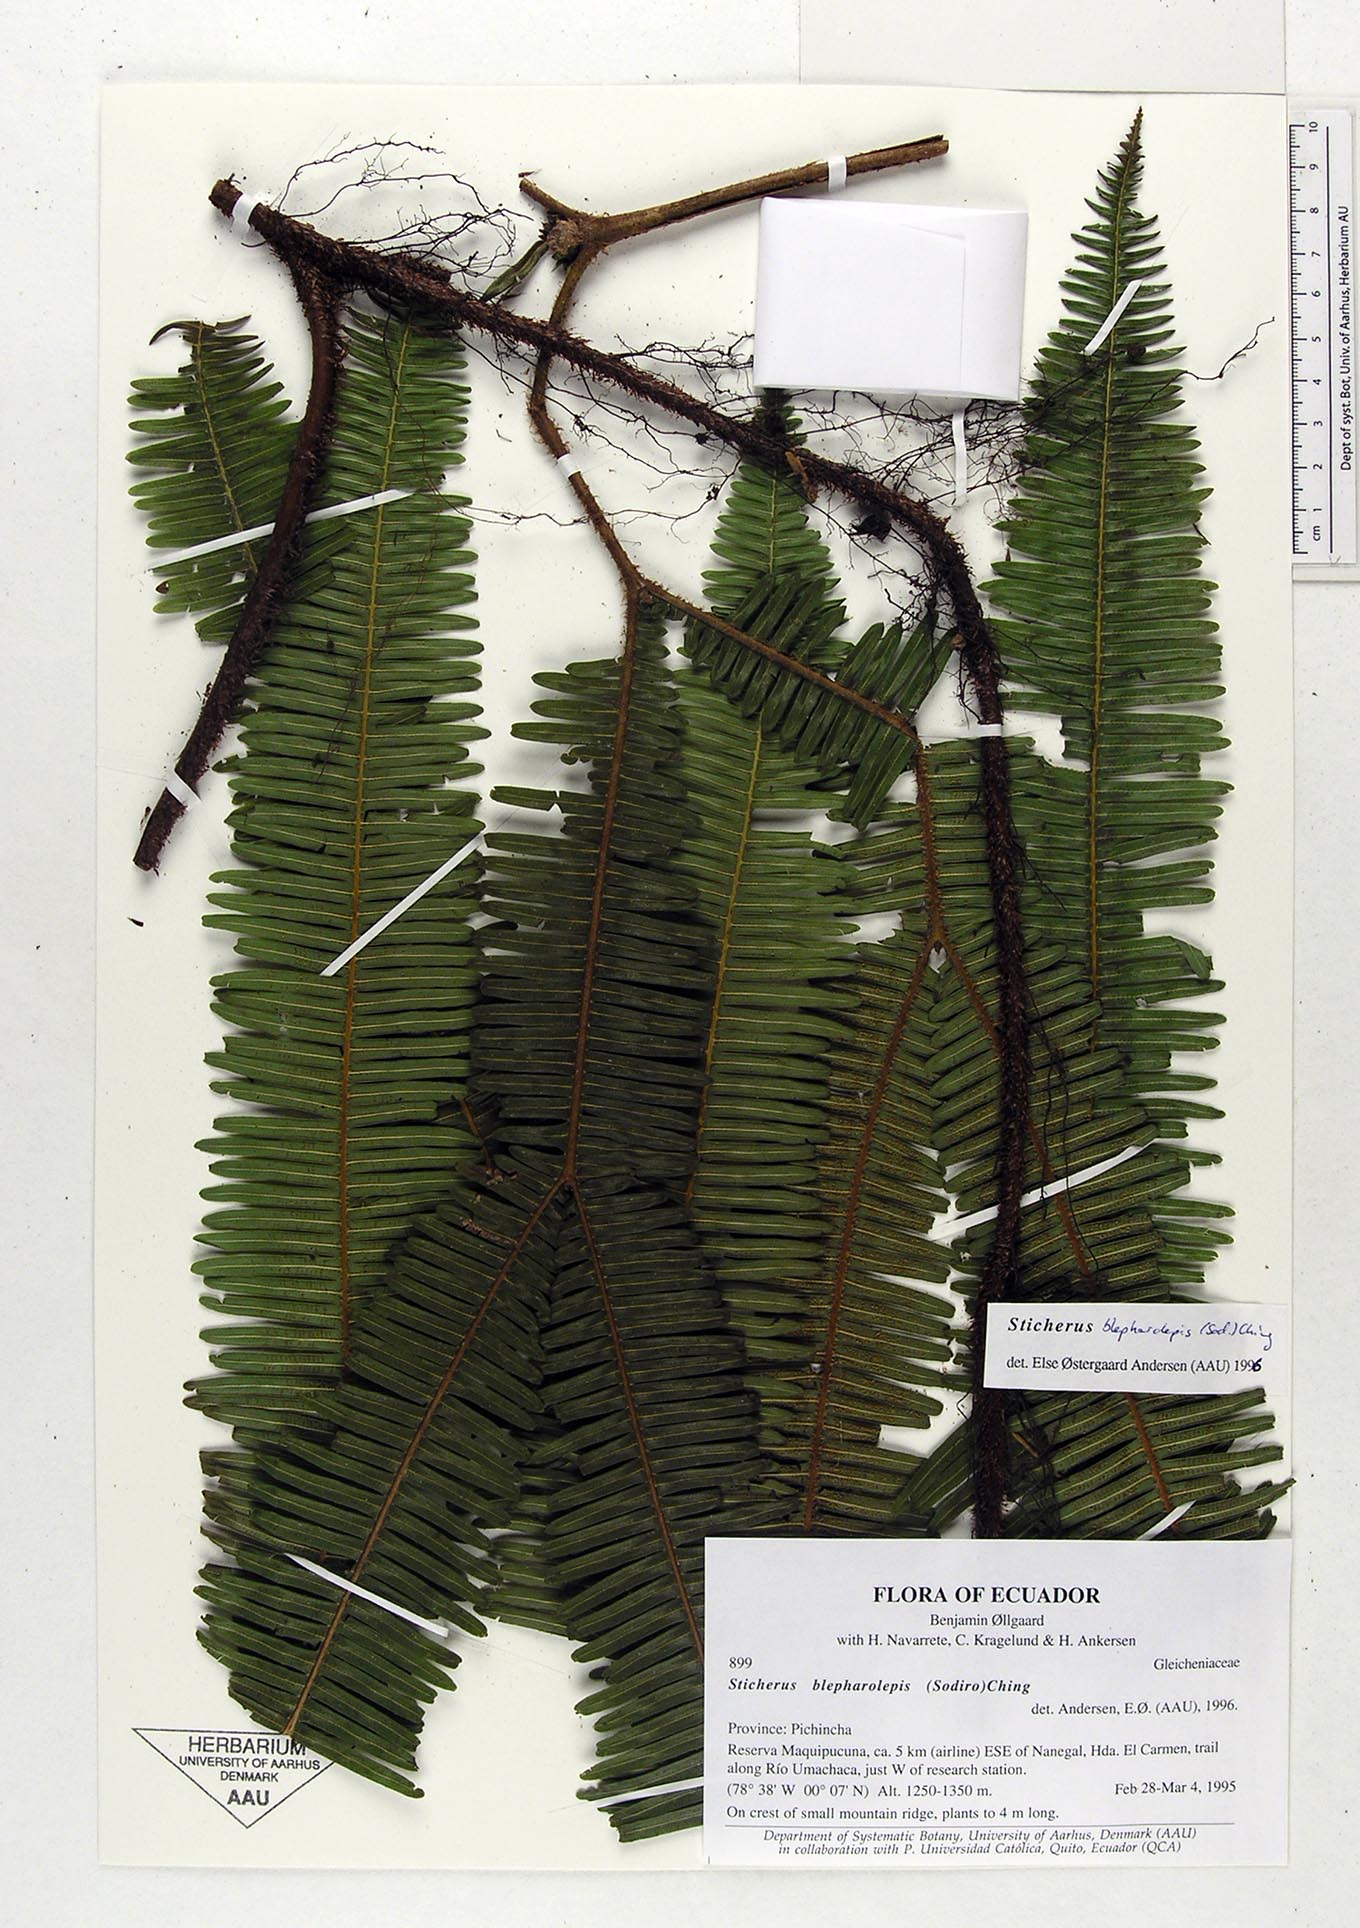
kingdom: Plantae
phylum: Tracheophyta
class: Polypodiopsida
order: Gleicheniales
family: Gleicheniaceae
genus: Sticherus
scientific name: Sticherus blepharolepis
